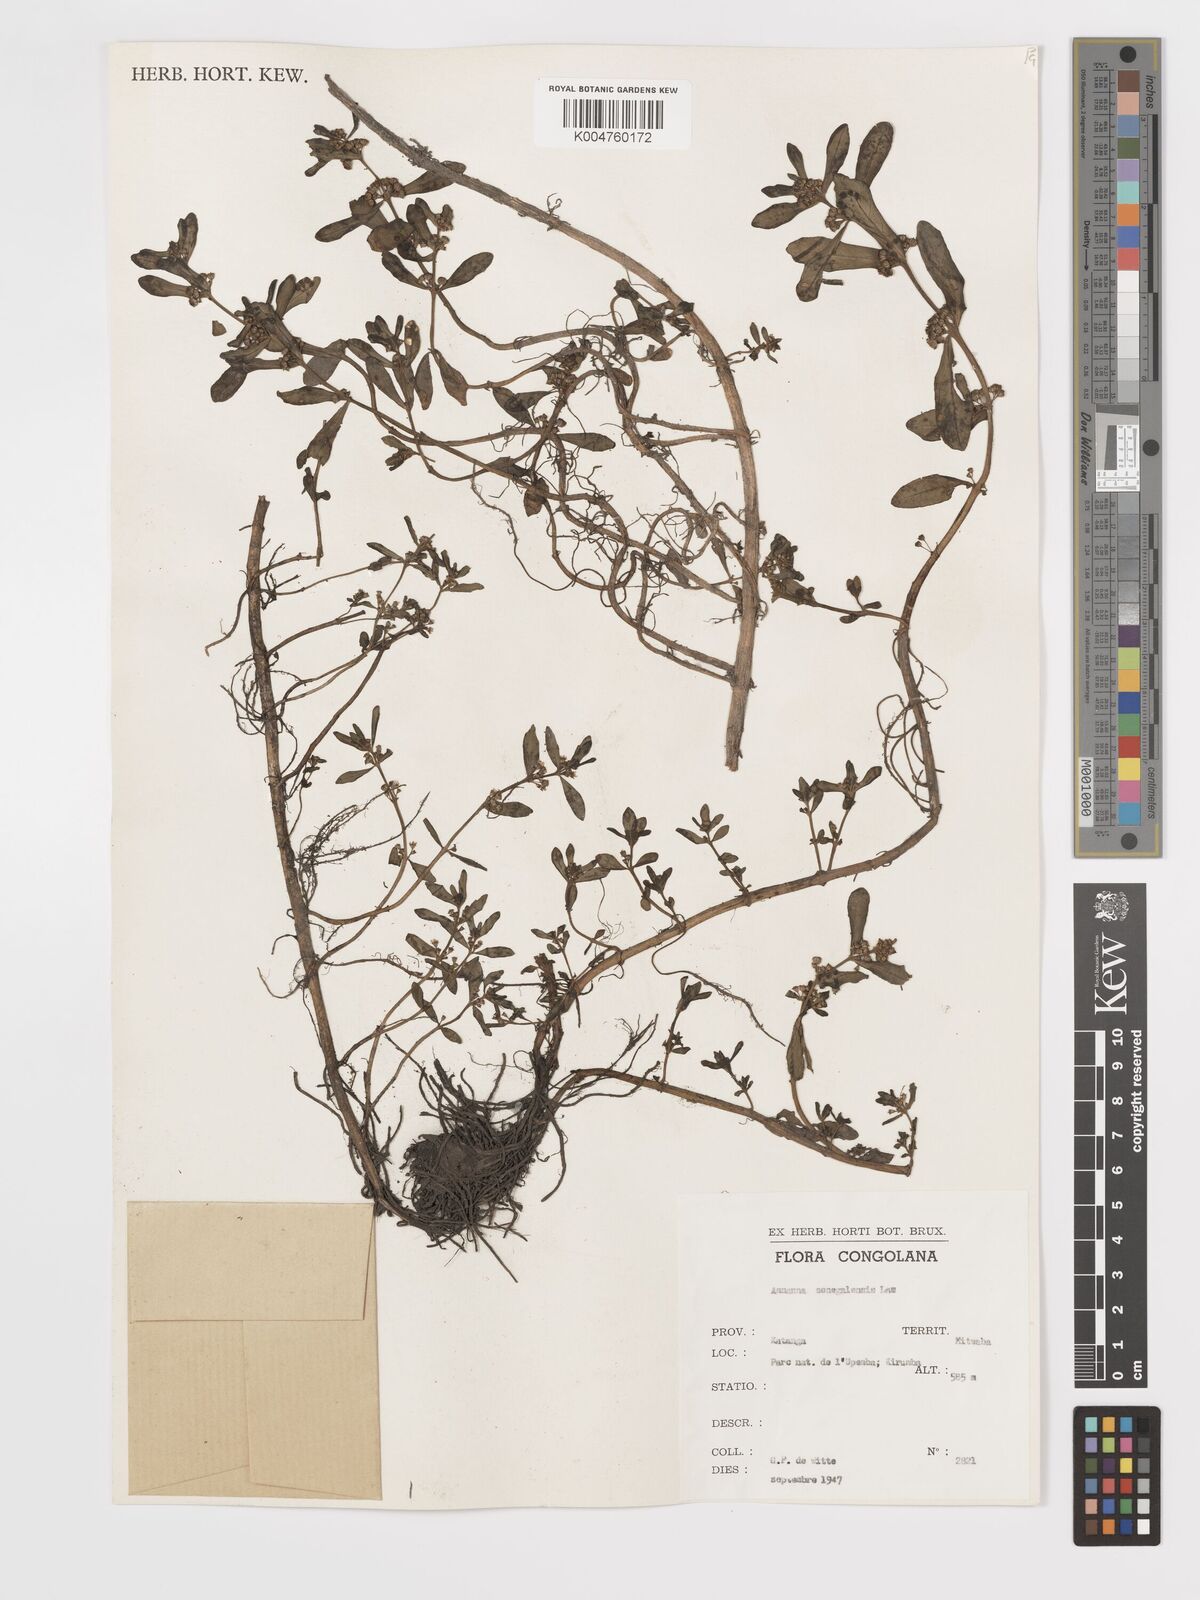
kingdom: Plantae
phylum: Tracheophyta
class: Magnoliopsida
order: Myrtales
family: Lythraceae
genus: Ammannia
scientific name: Ammannia auriculata
